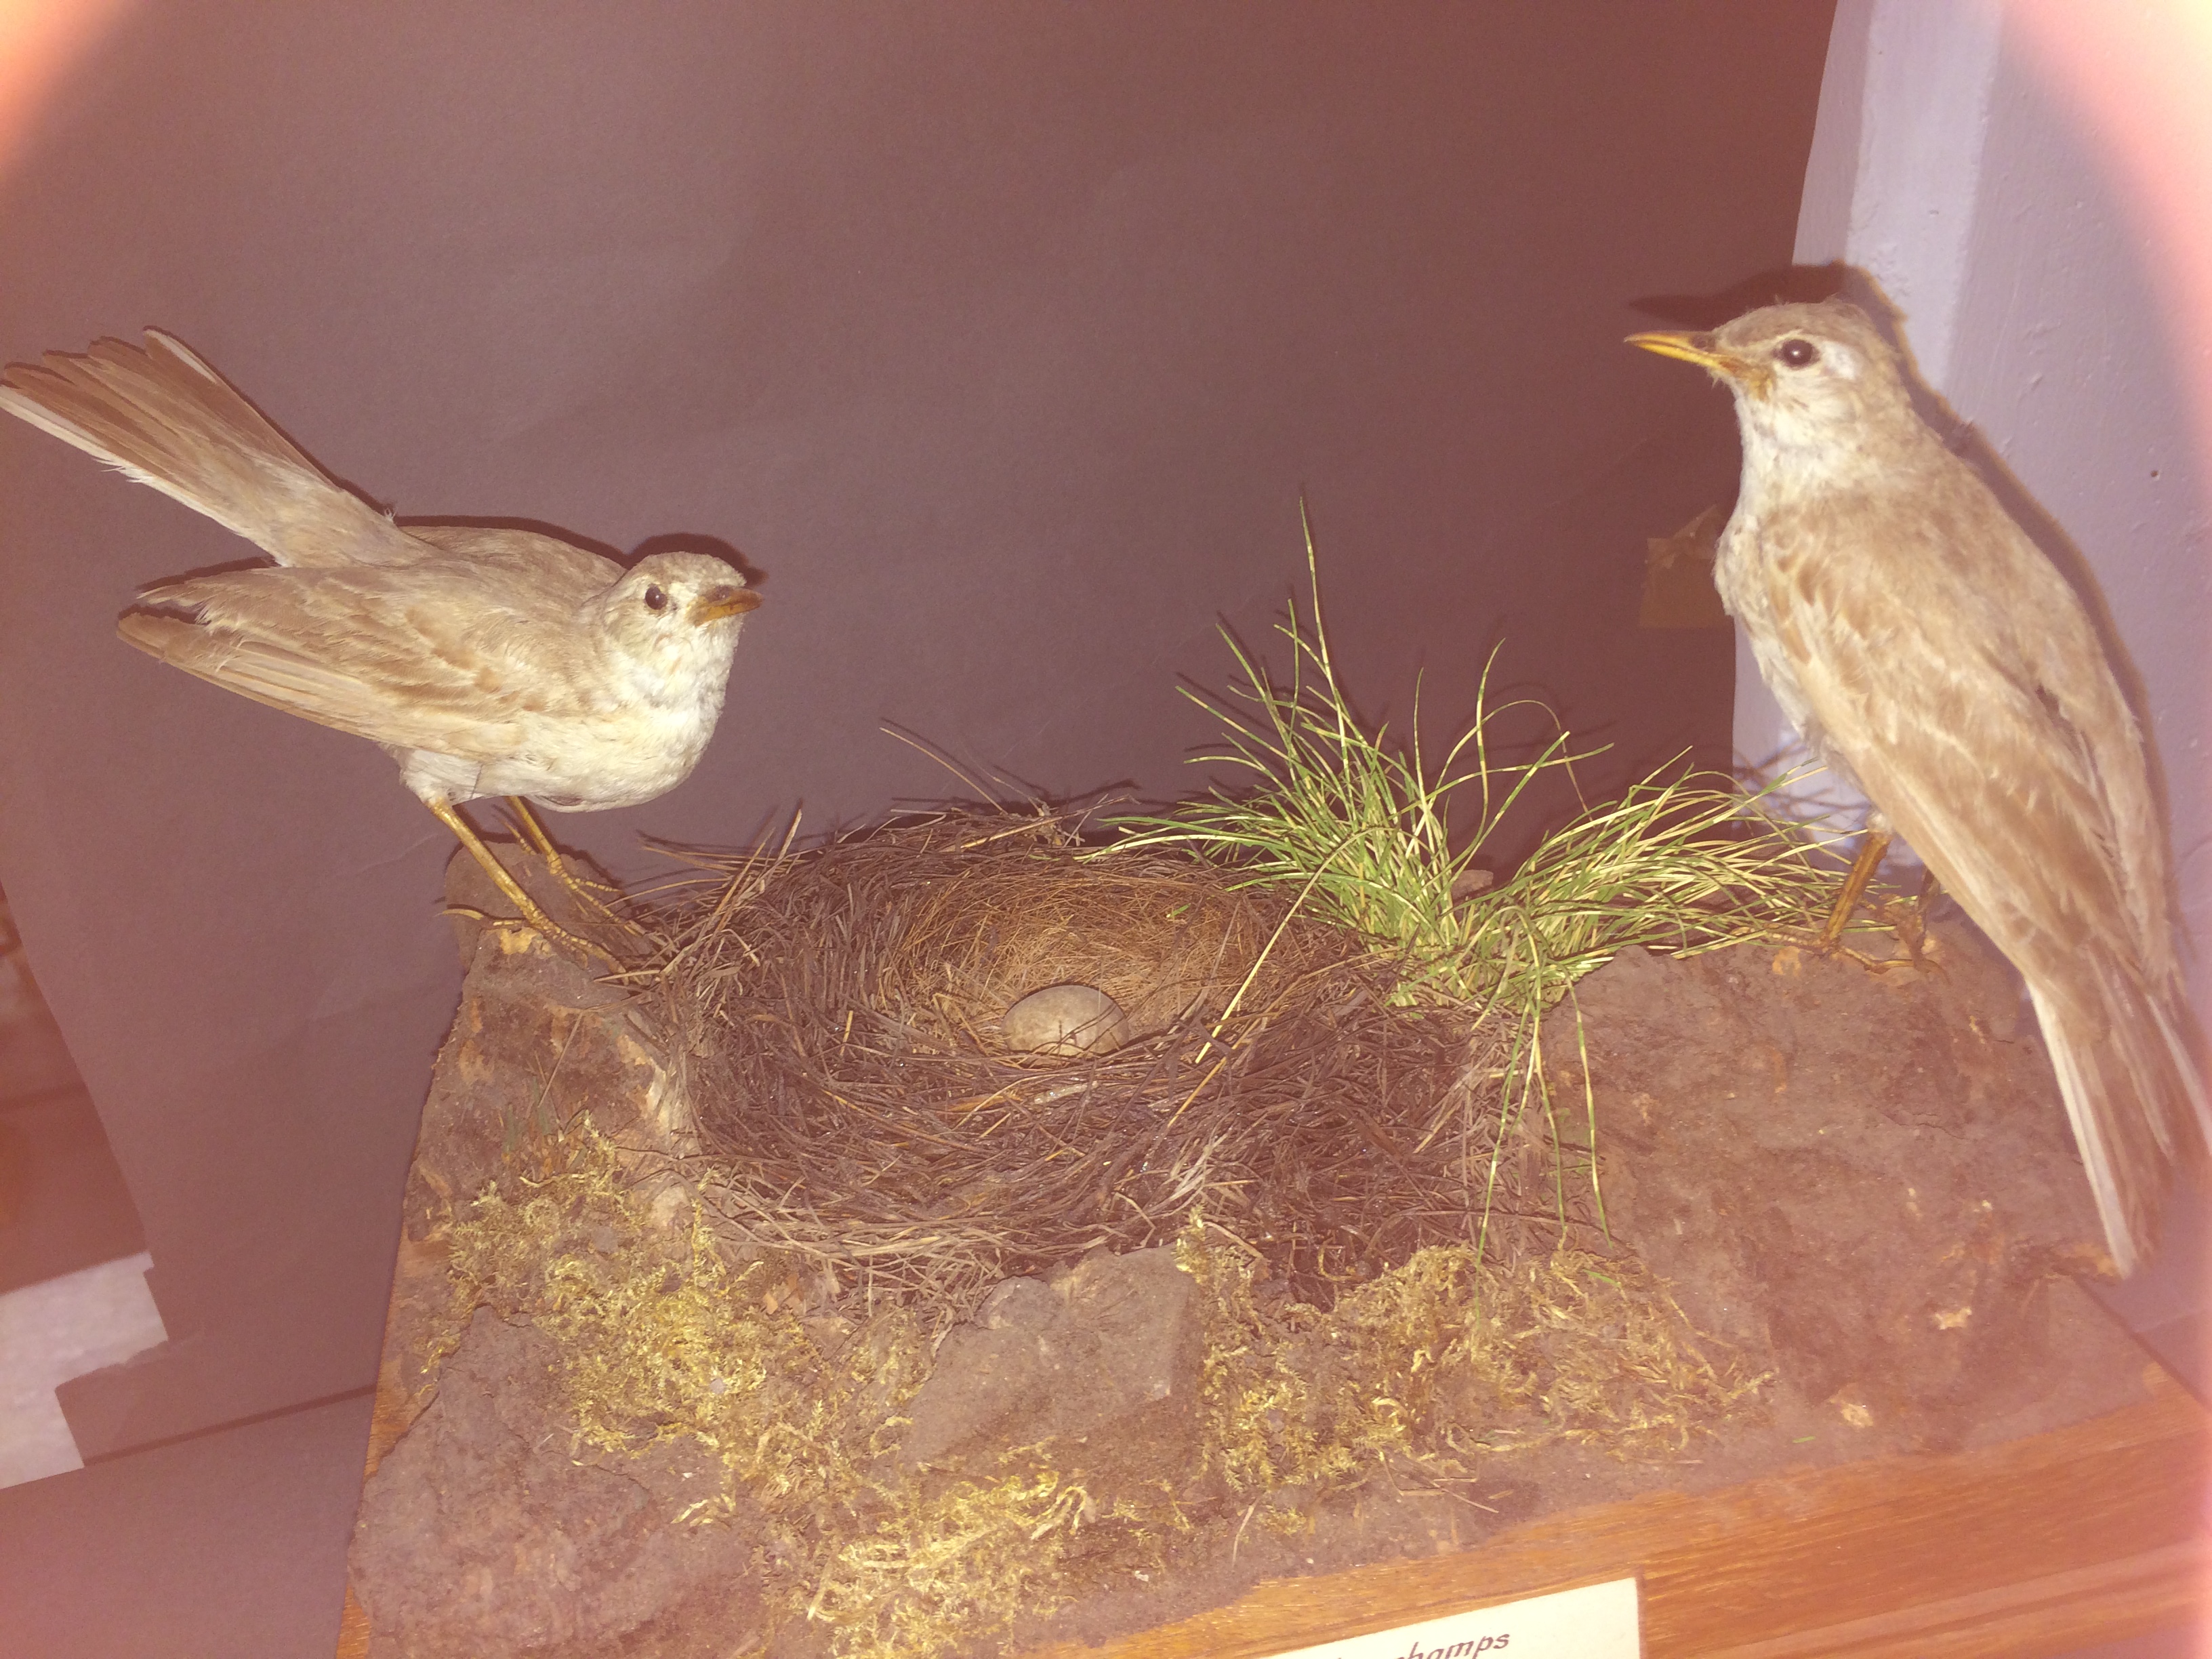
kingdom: Animalia
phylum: Chordata
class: Aves
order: Passeriformes
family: Motacillidae
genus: Anthus
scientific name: Anthus campestris
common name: Tawny pipit
